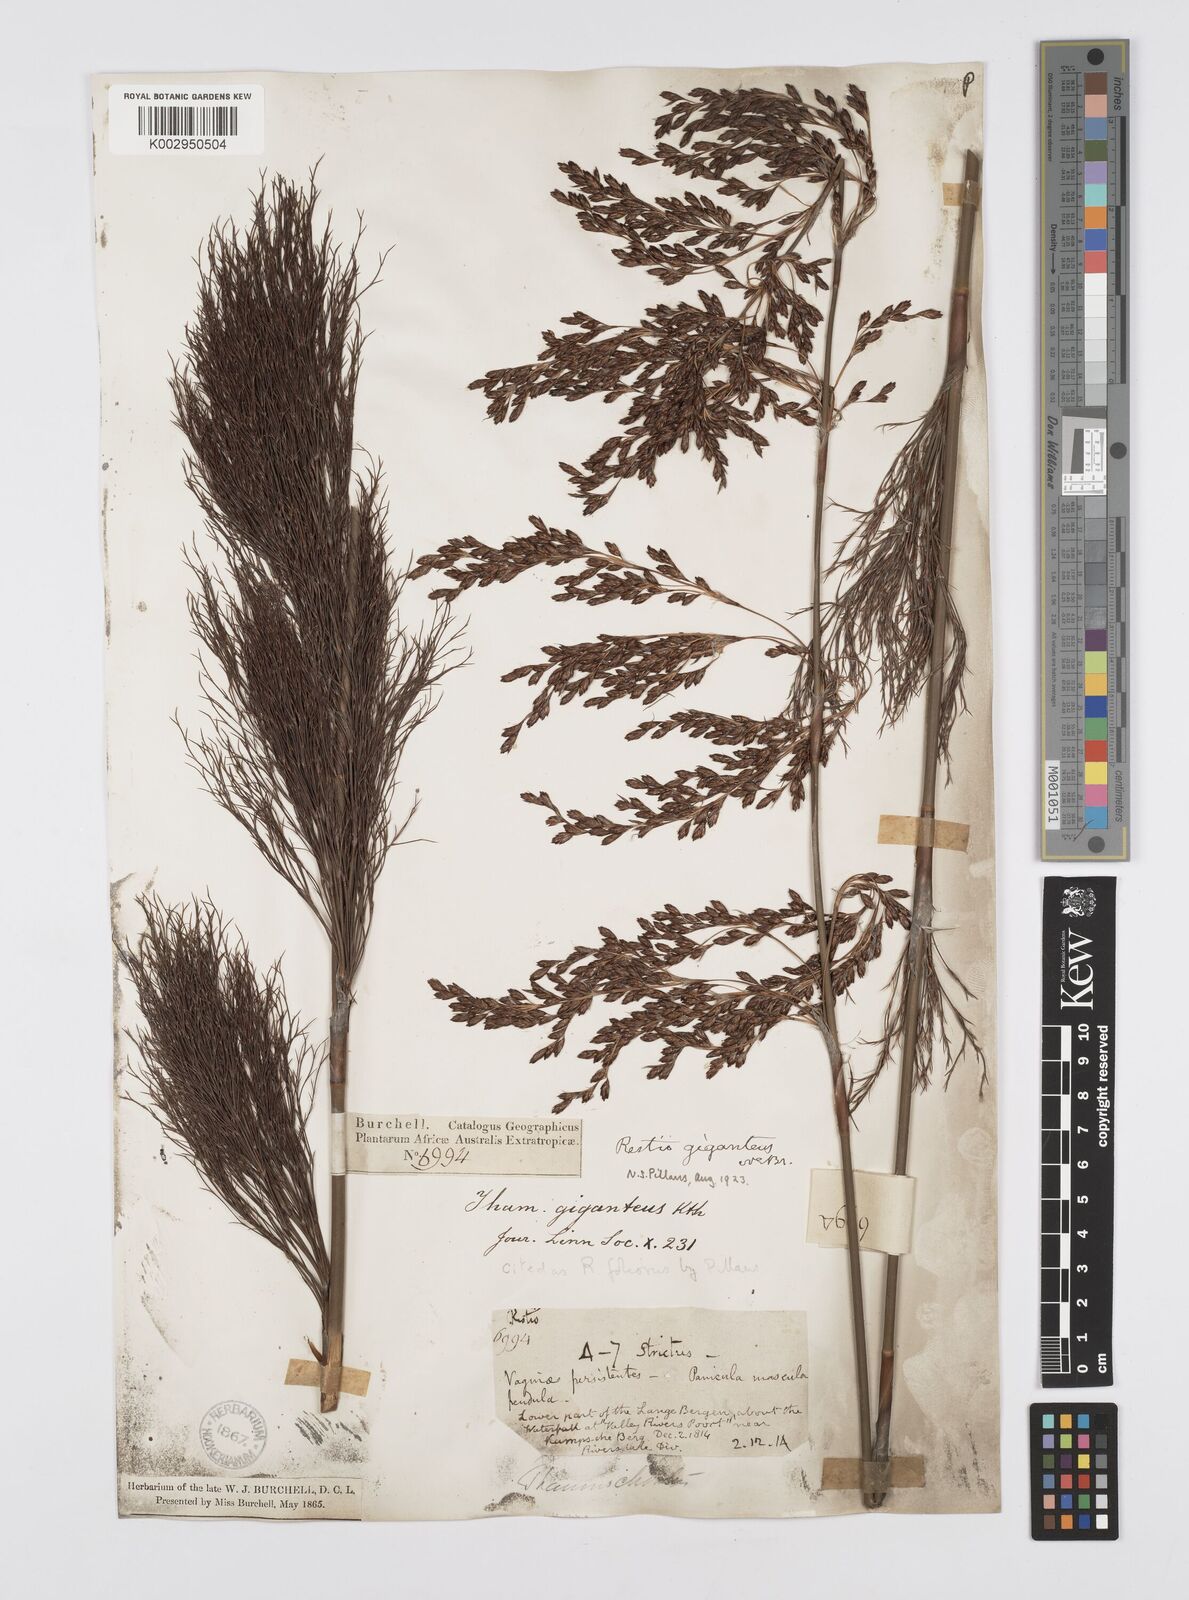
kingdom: Plantae
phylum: Tracheophyta
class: Liliopsida
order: Poales
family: Restionaceae
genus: Rhodocoma
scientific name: Rhodocoma foliosa
